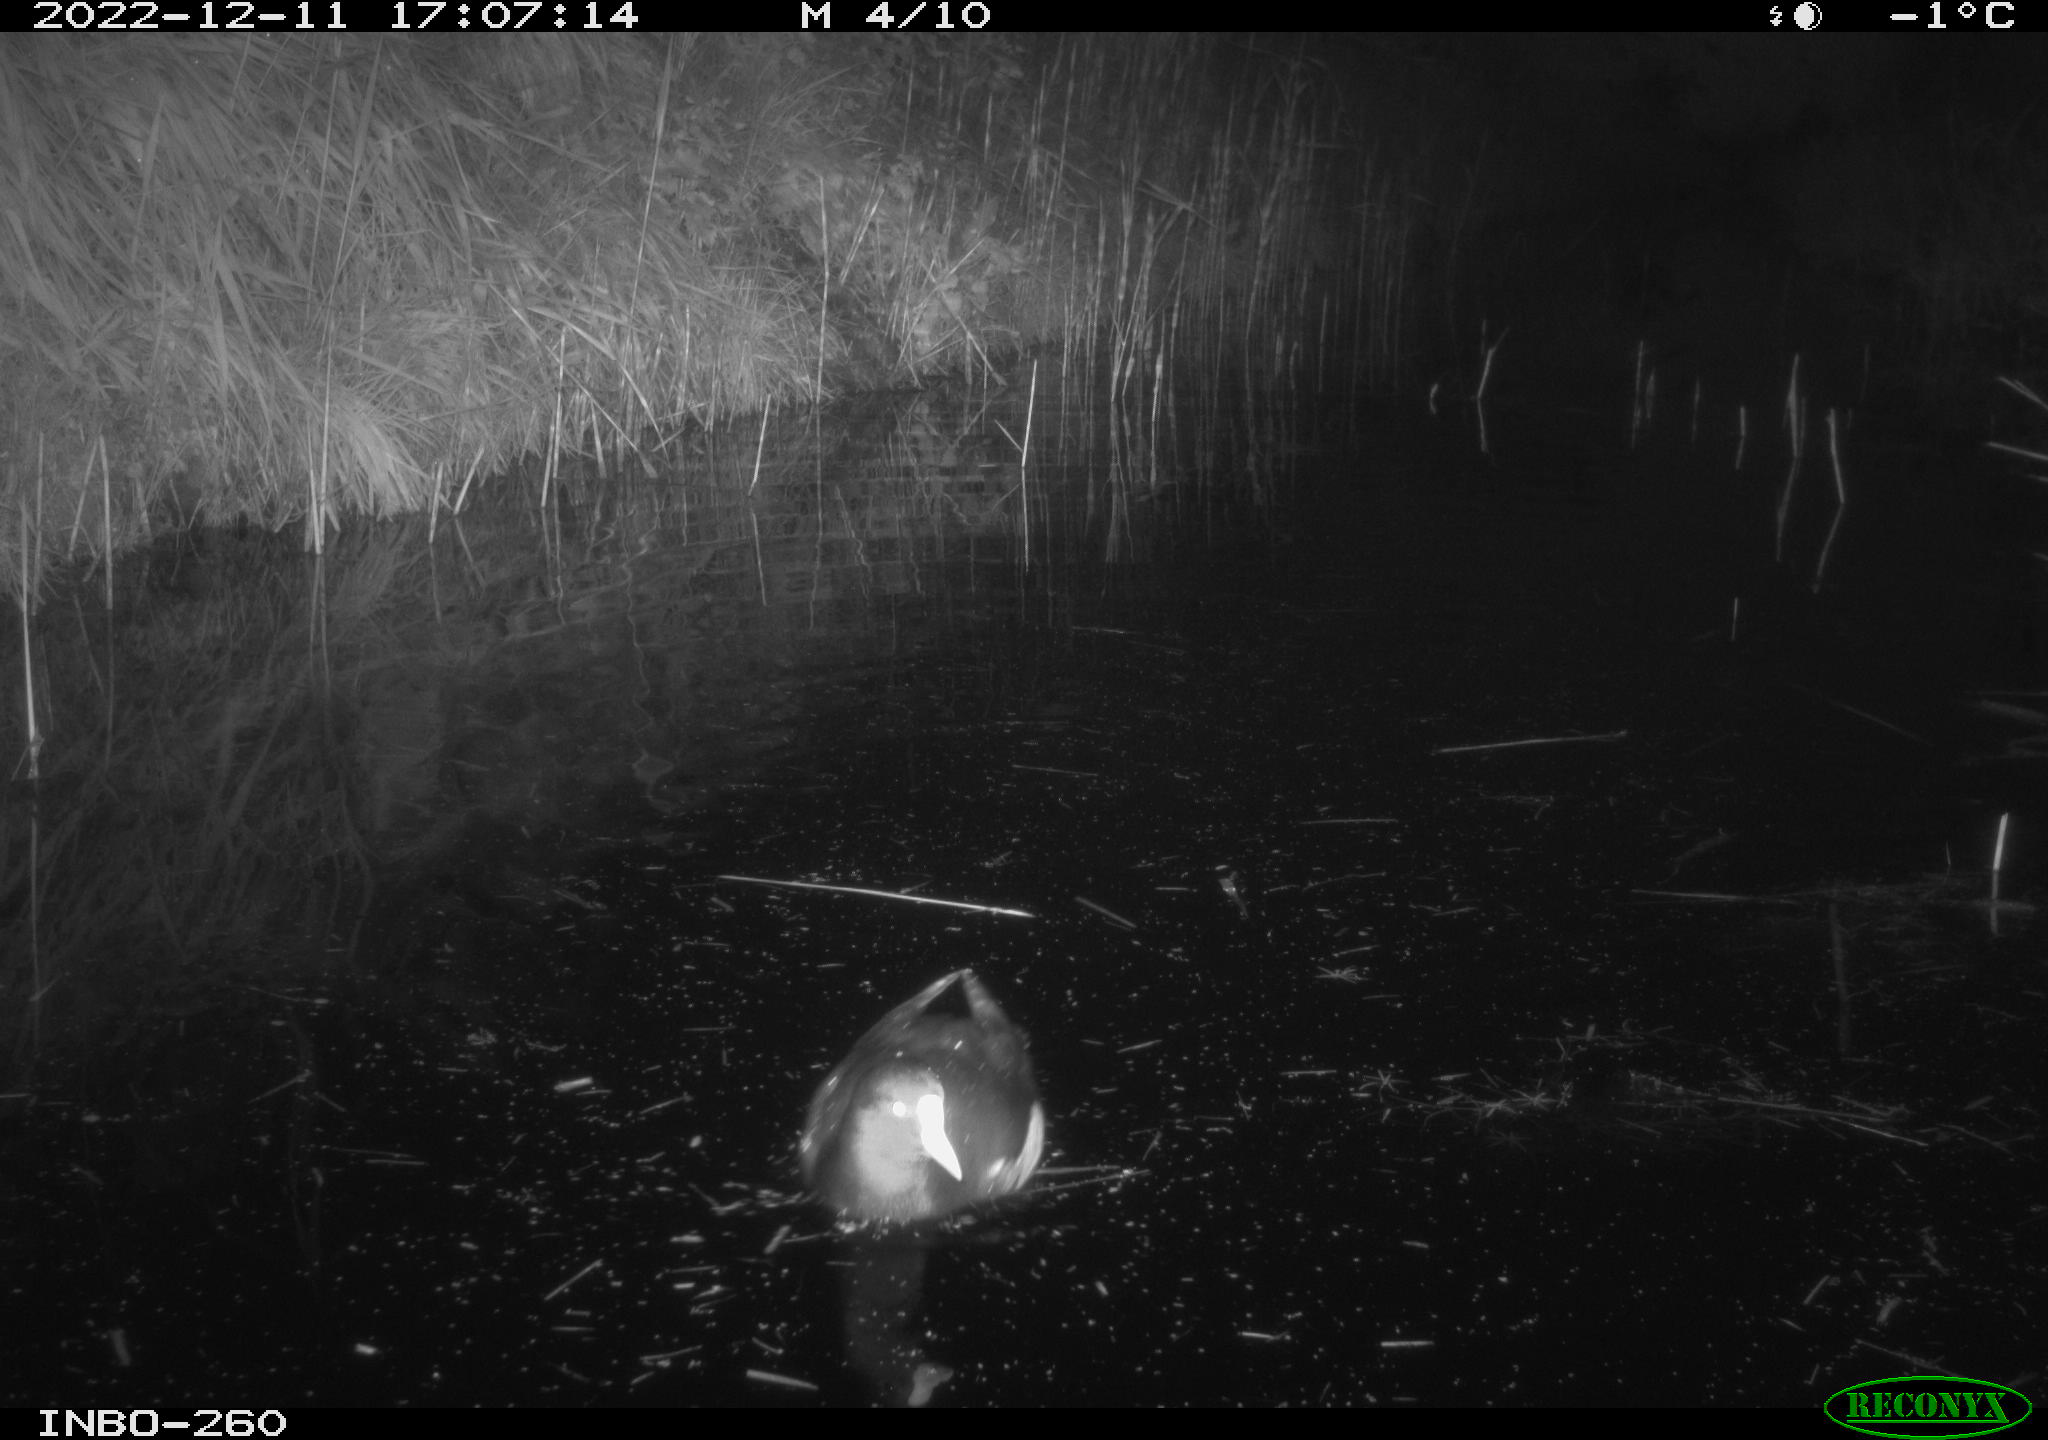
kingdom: Animalia
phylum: Chordata
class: Aves
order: Gruiformes
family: Rallidae
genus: Fulica
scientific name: Fulica atra
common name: Eurasian coot
